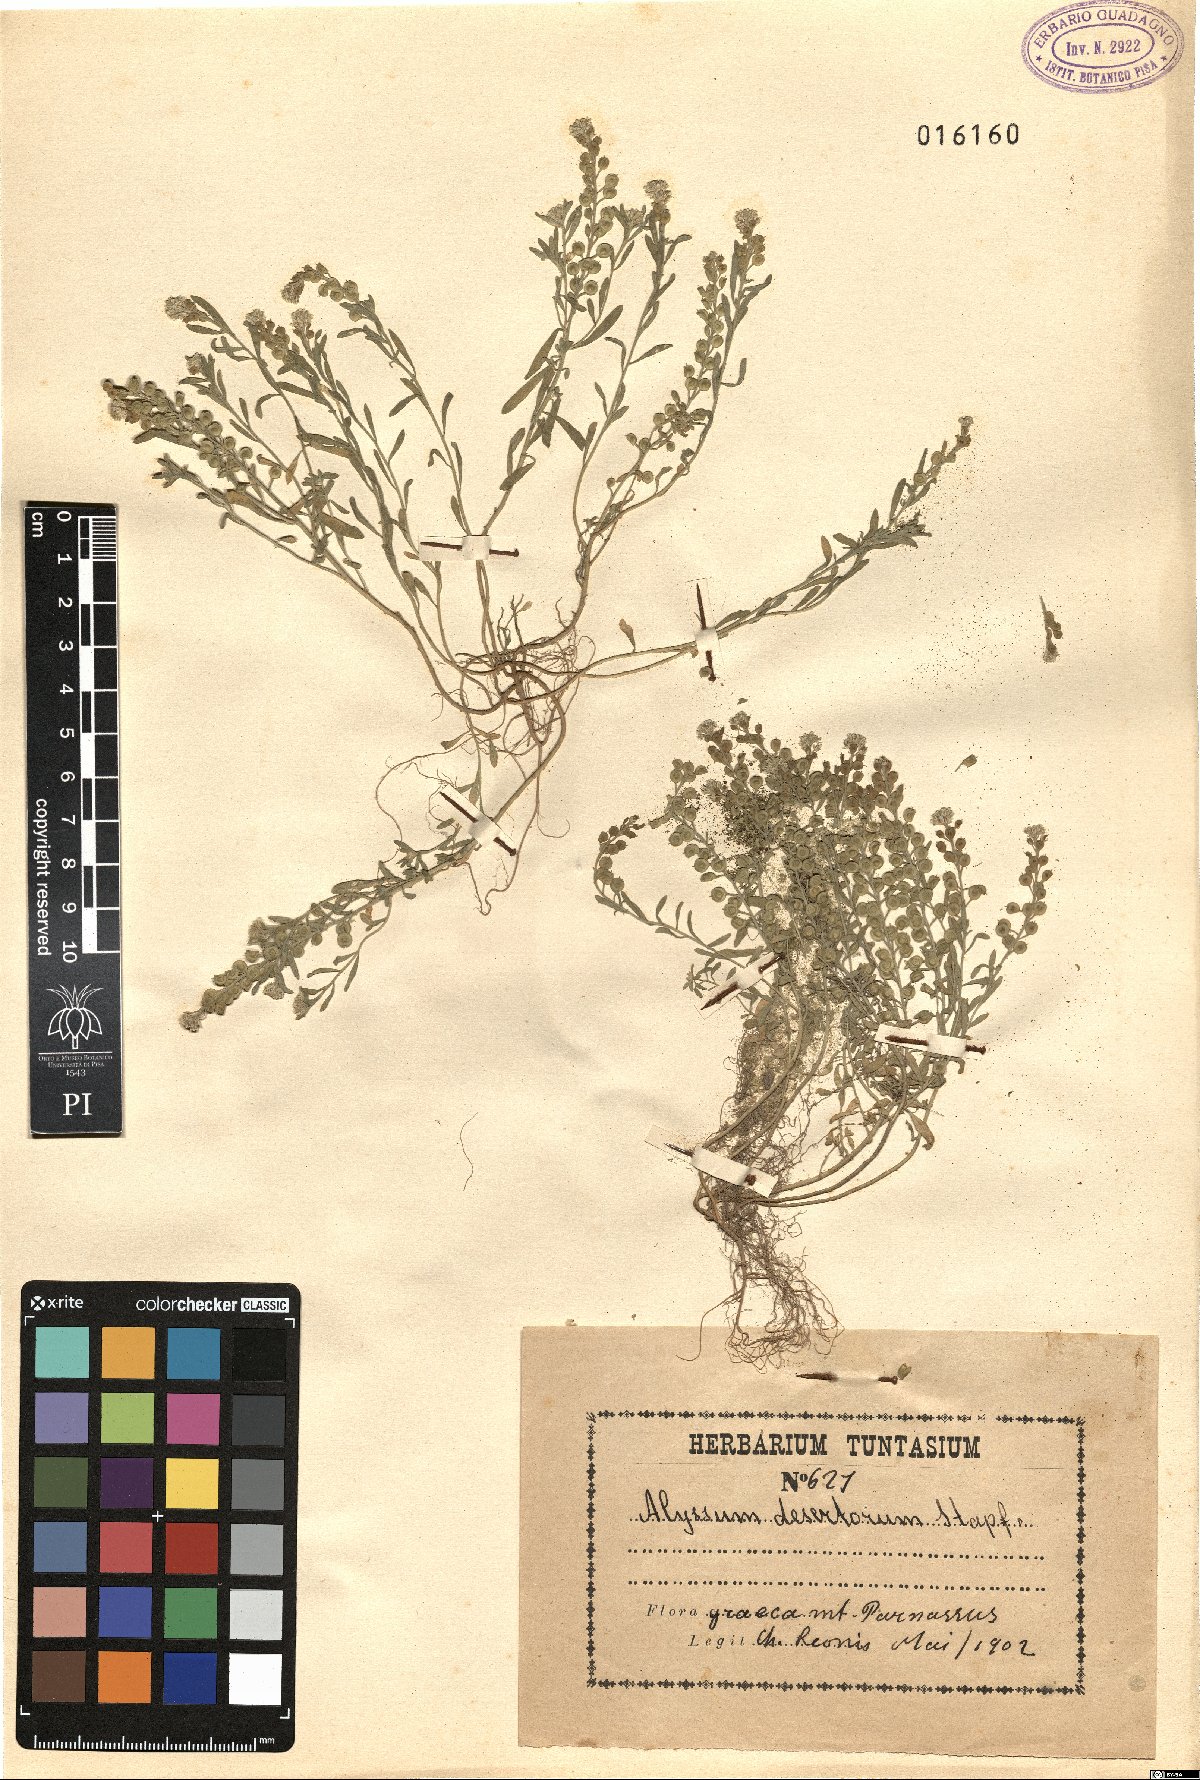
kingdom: Plantae
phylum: Tracheophyta
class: Magnoliopsida
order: Brassicales
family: Brassicaceae
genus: Alyssum
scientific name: Alyssum turkestanicum
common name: Desert alyssum
